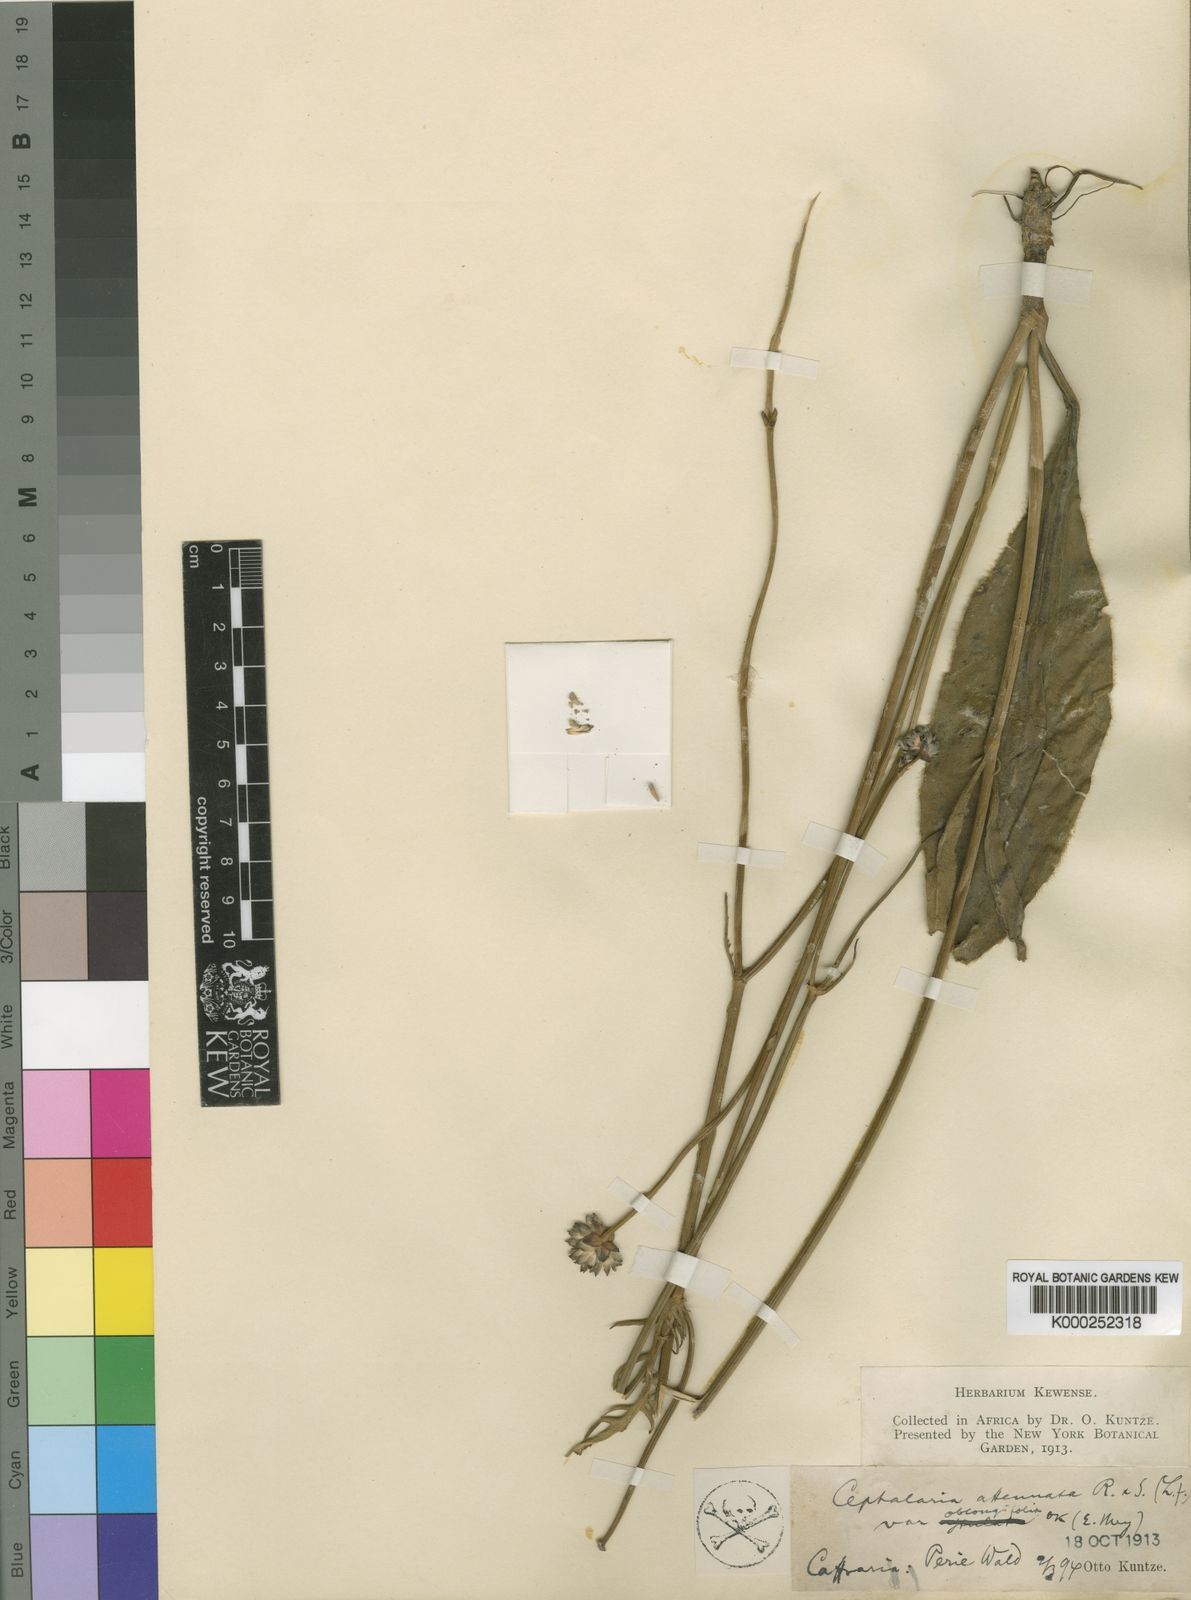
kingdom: Plantae
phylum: Tracheophyta
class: Magnoliopsida
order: Dipsacales
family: Caprifoliaceae
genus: Cephalaria
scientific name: Cephalaria oblongifolia
